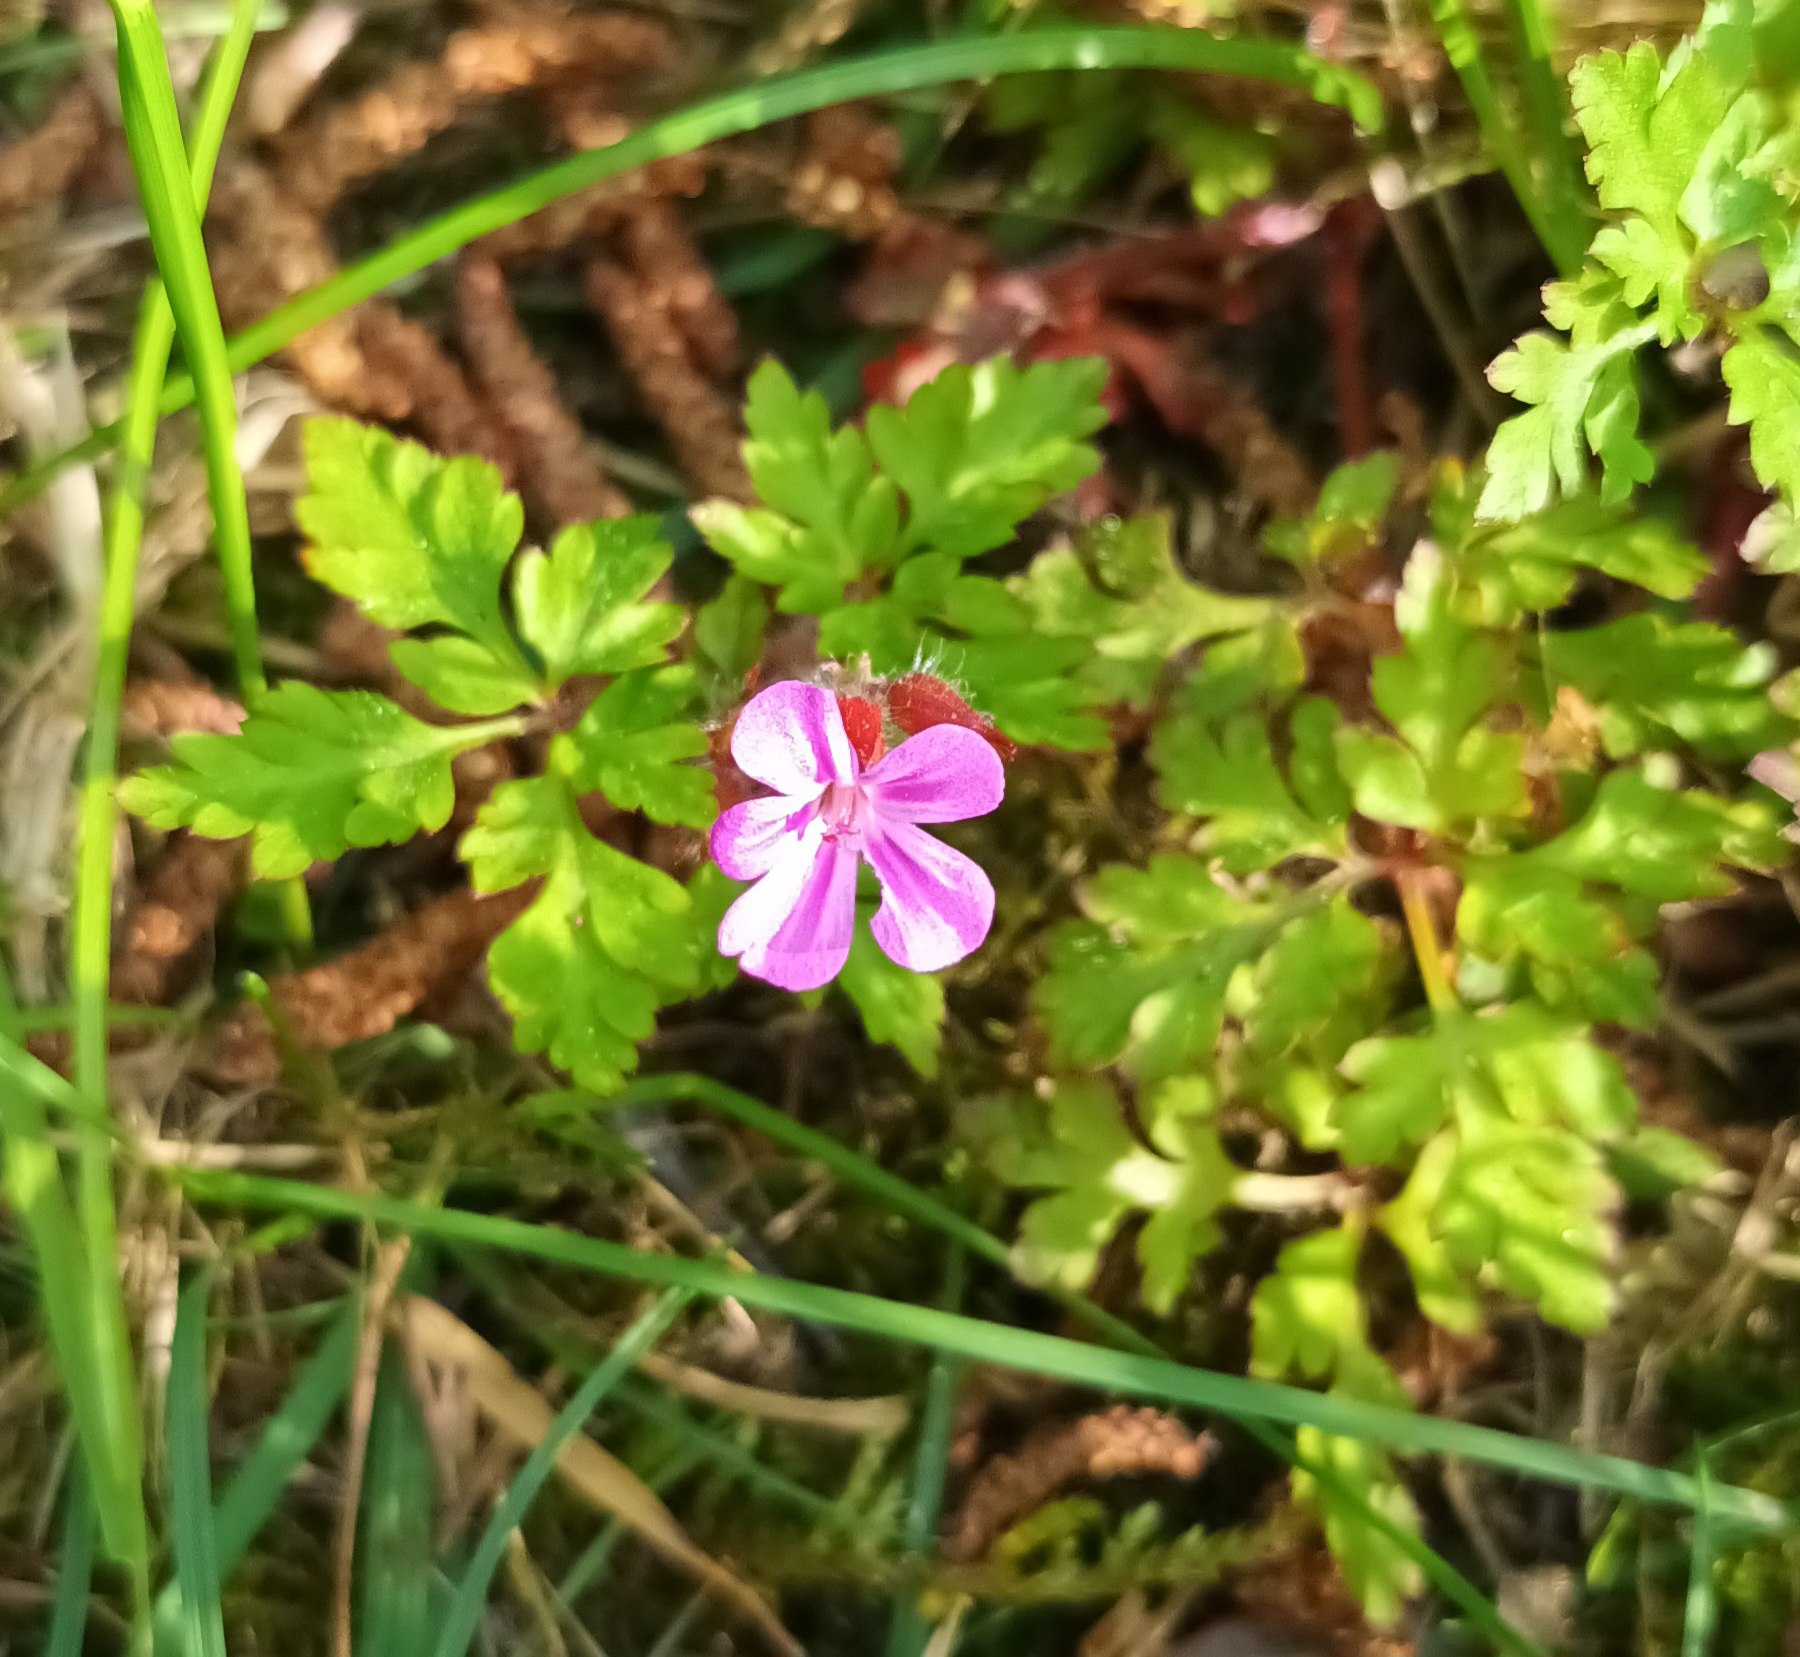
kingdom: Plantae
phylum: Tracheophyta
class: Magnoliopsida
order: Geraniales
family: Geraniaceae
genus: Geranium
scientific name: Geranium robertianum
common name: Stinkende storkenæb
